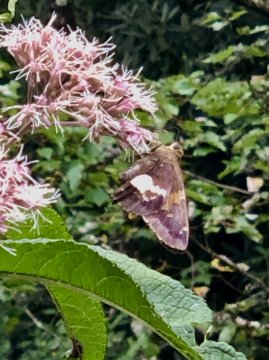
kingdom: Animalia
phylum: Arthropoda
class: Insecta
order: Lepidoptera
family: Hesperiidae
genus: Epargyreus
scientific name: Epargyreus clarus
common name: Silver-spotted Skipper
